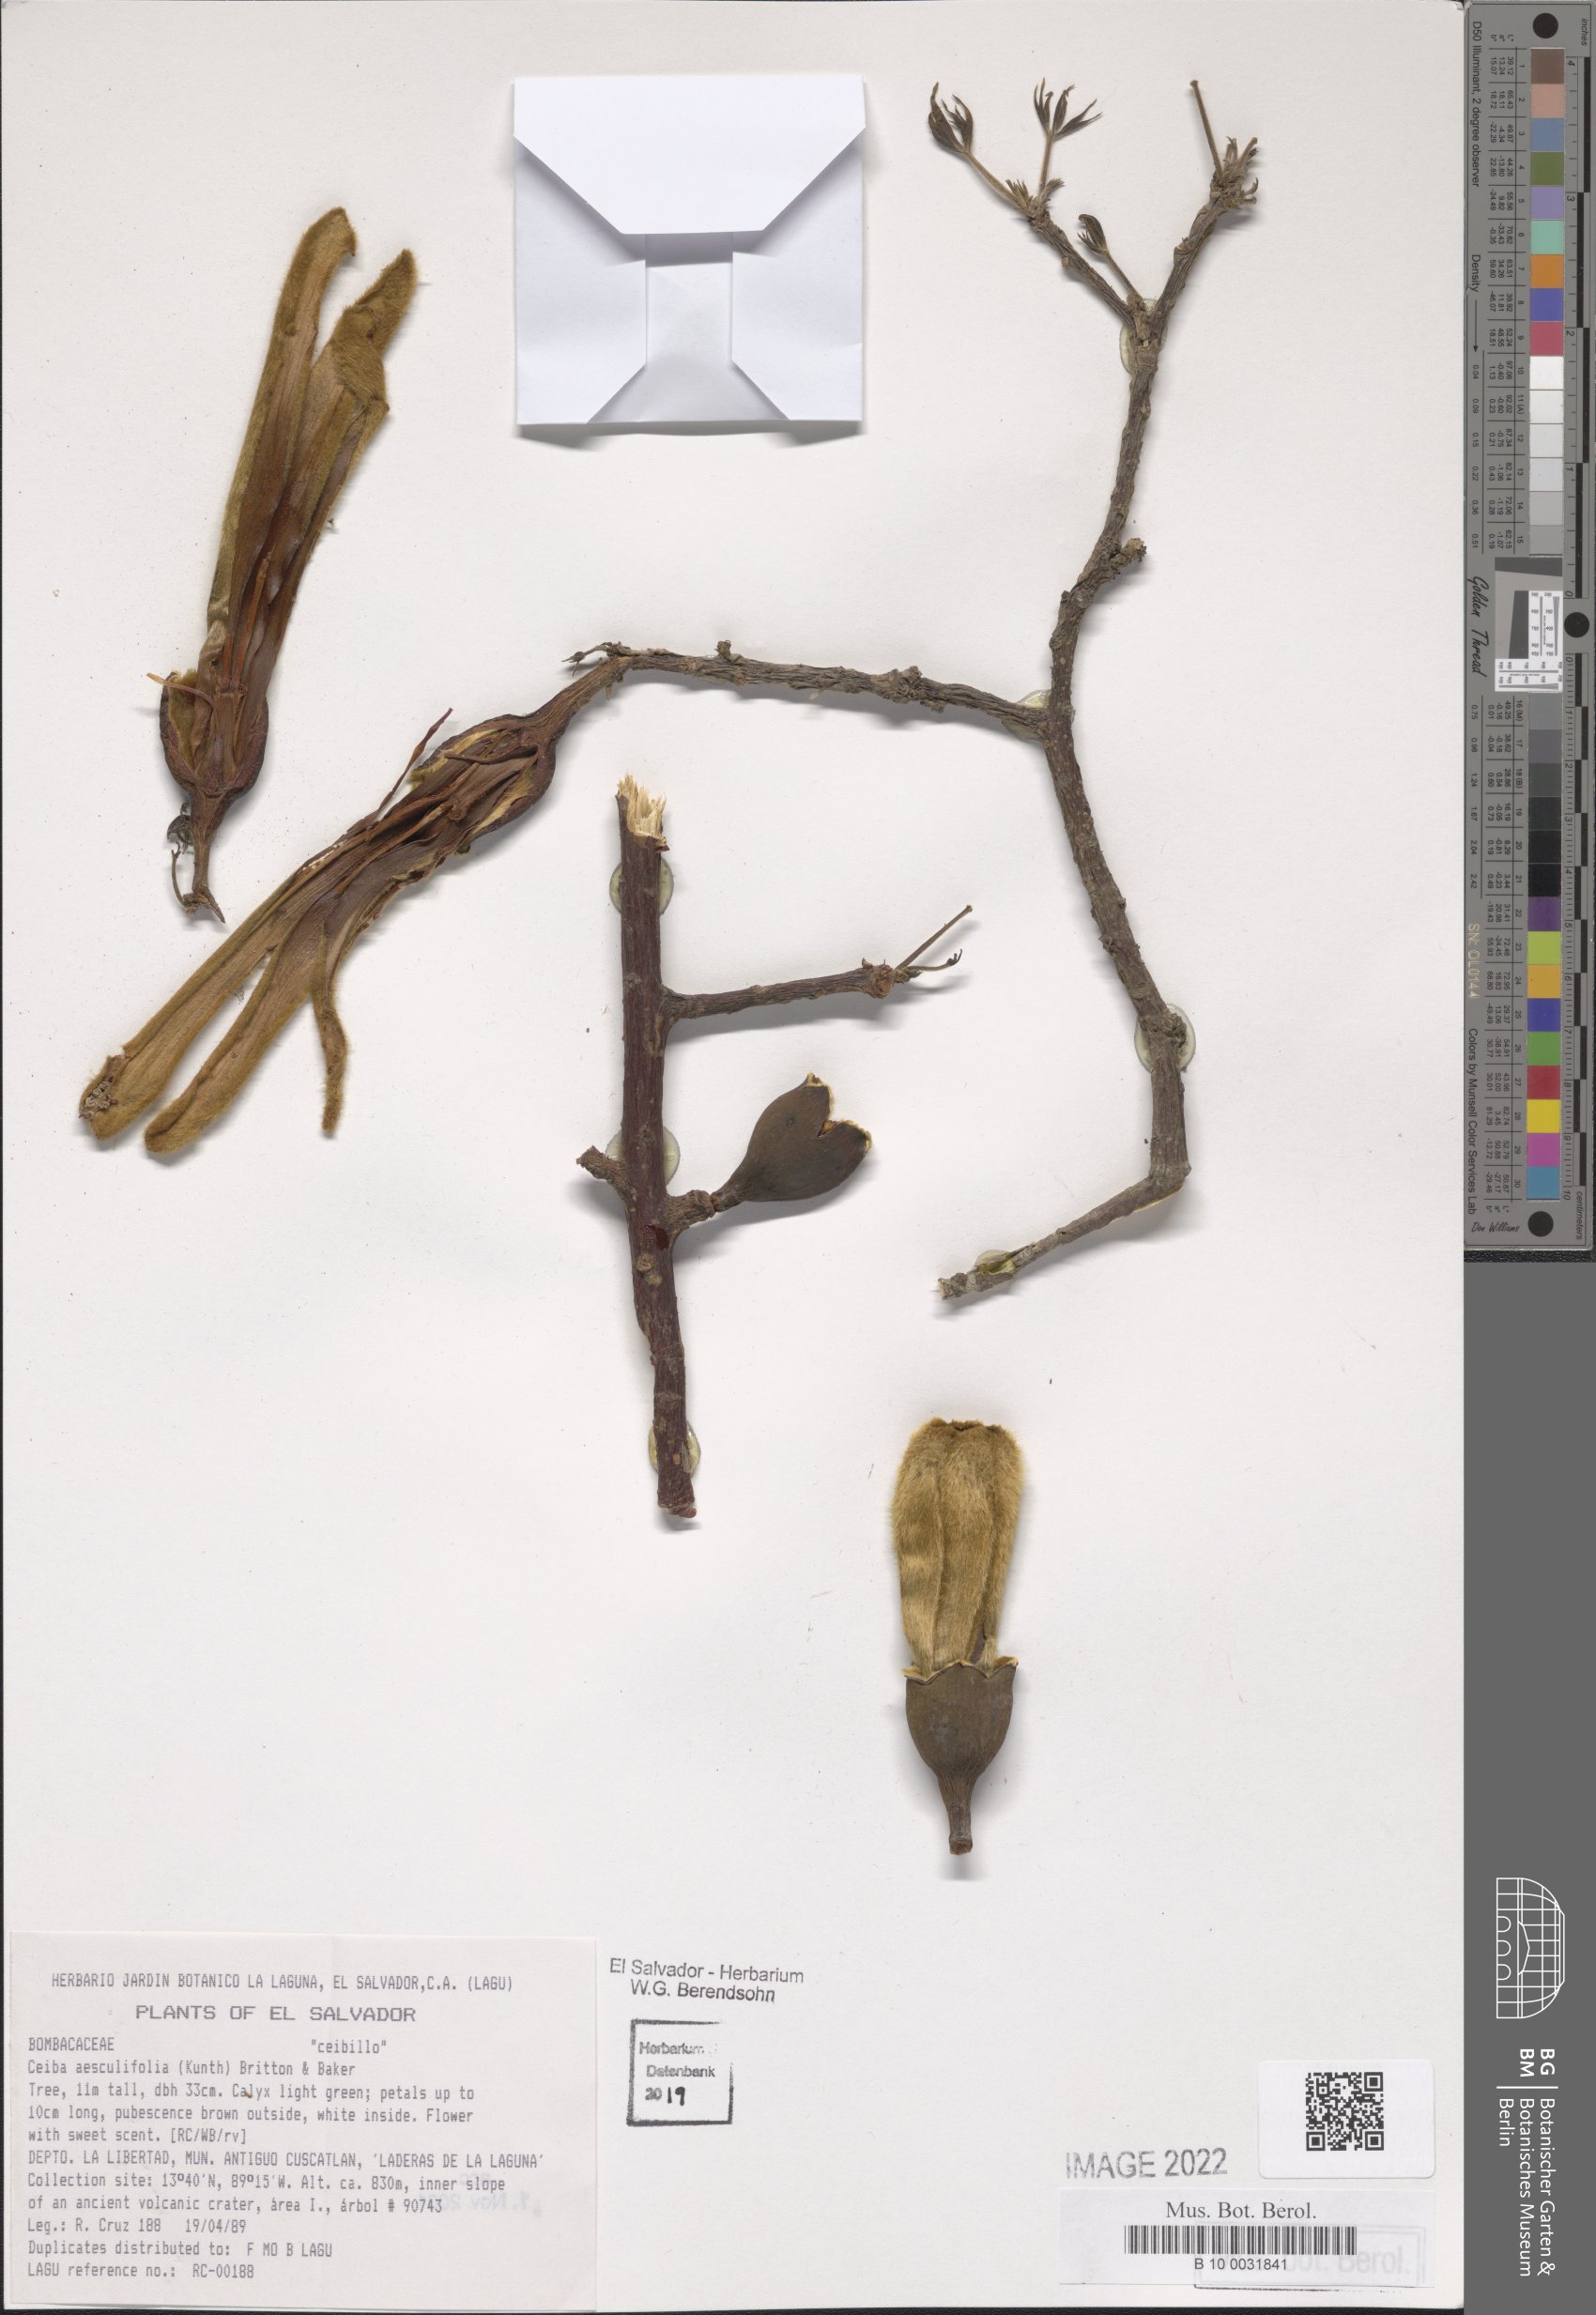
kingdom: Plantae
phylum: Tracheophyta
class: Magnoliopsida
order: Malvales
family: Malvaceae
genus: Ceiba
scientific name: Ceiba aesculifolia
